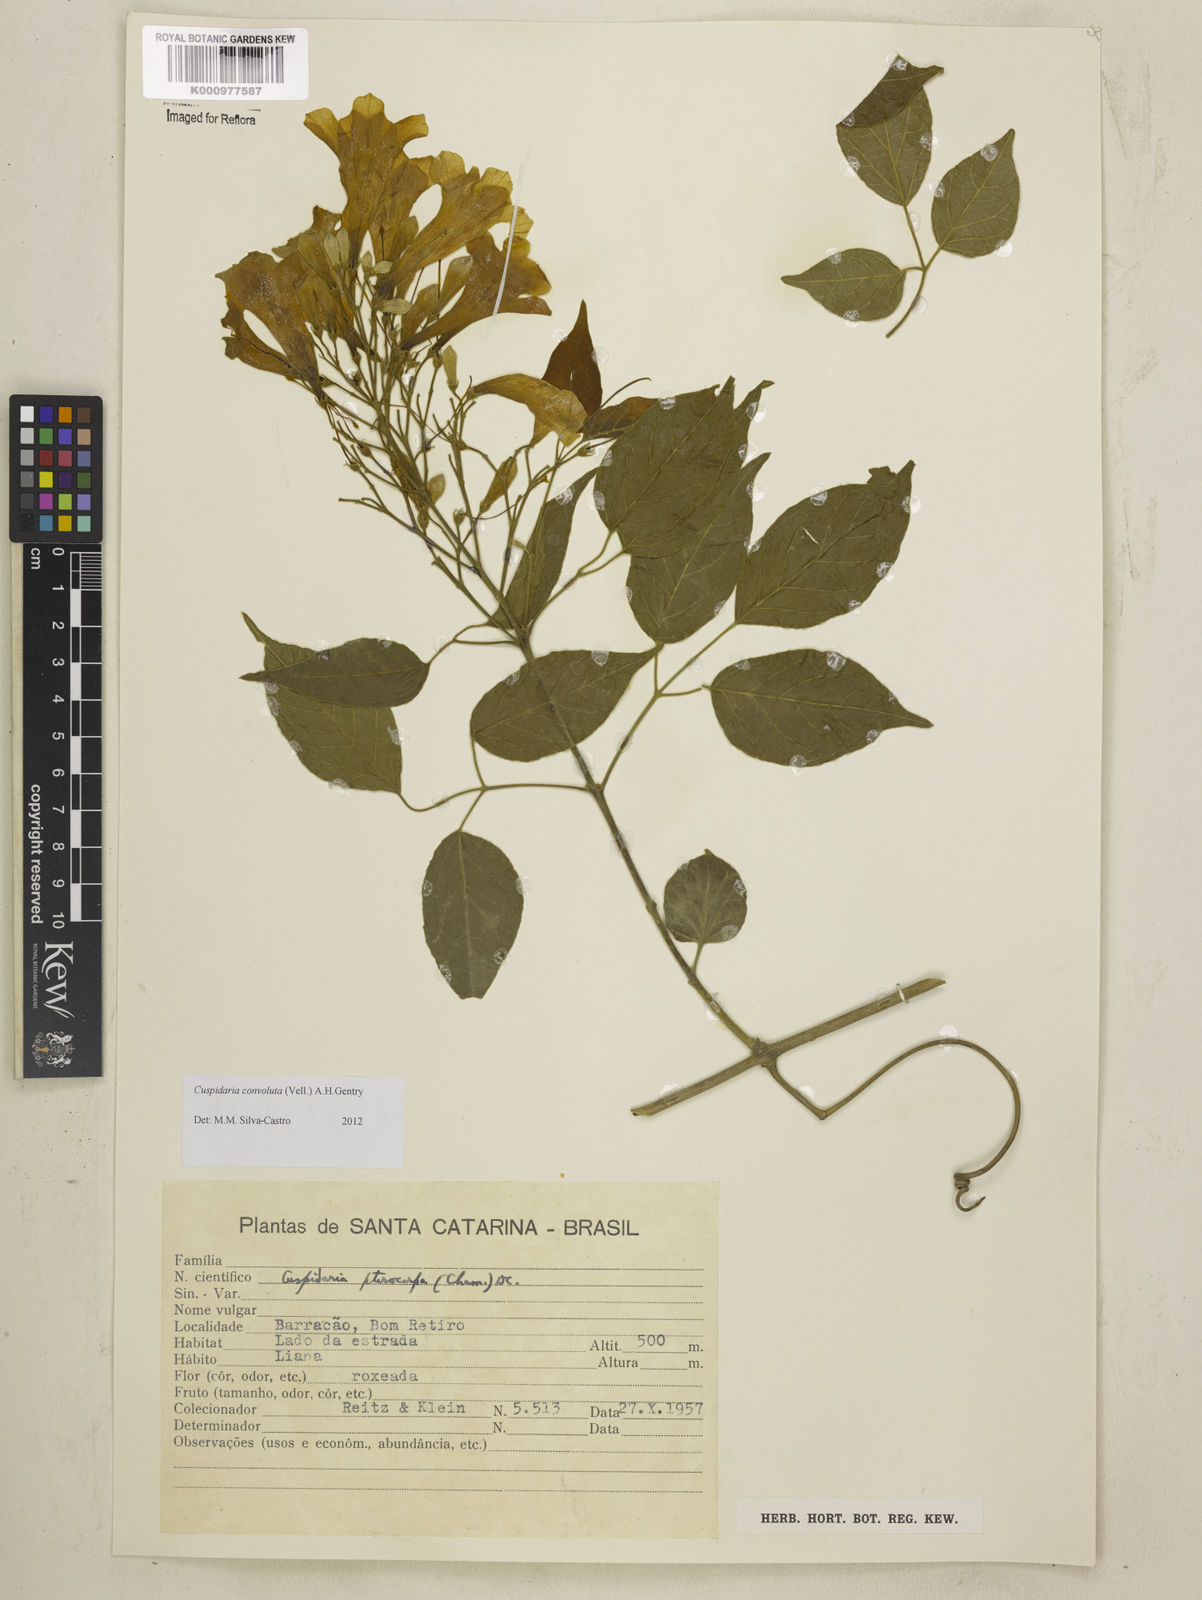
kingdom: Plantae
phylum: Tracheophyta
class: Magnoliopsida
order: Lamiales
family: Bignoniaceae
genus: Cuspidaria
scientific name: Cuspidaria convoluta
